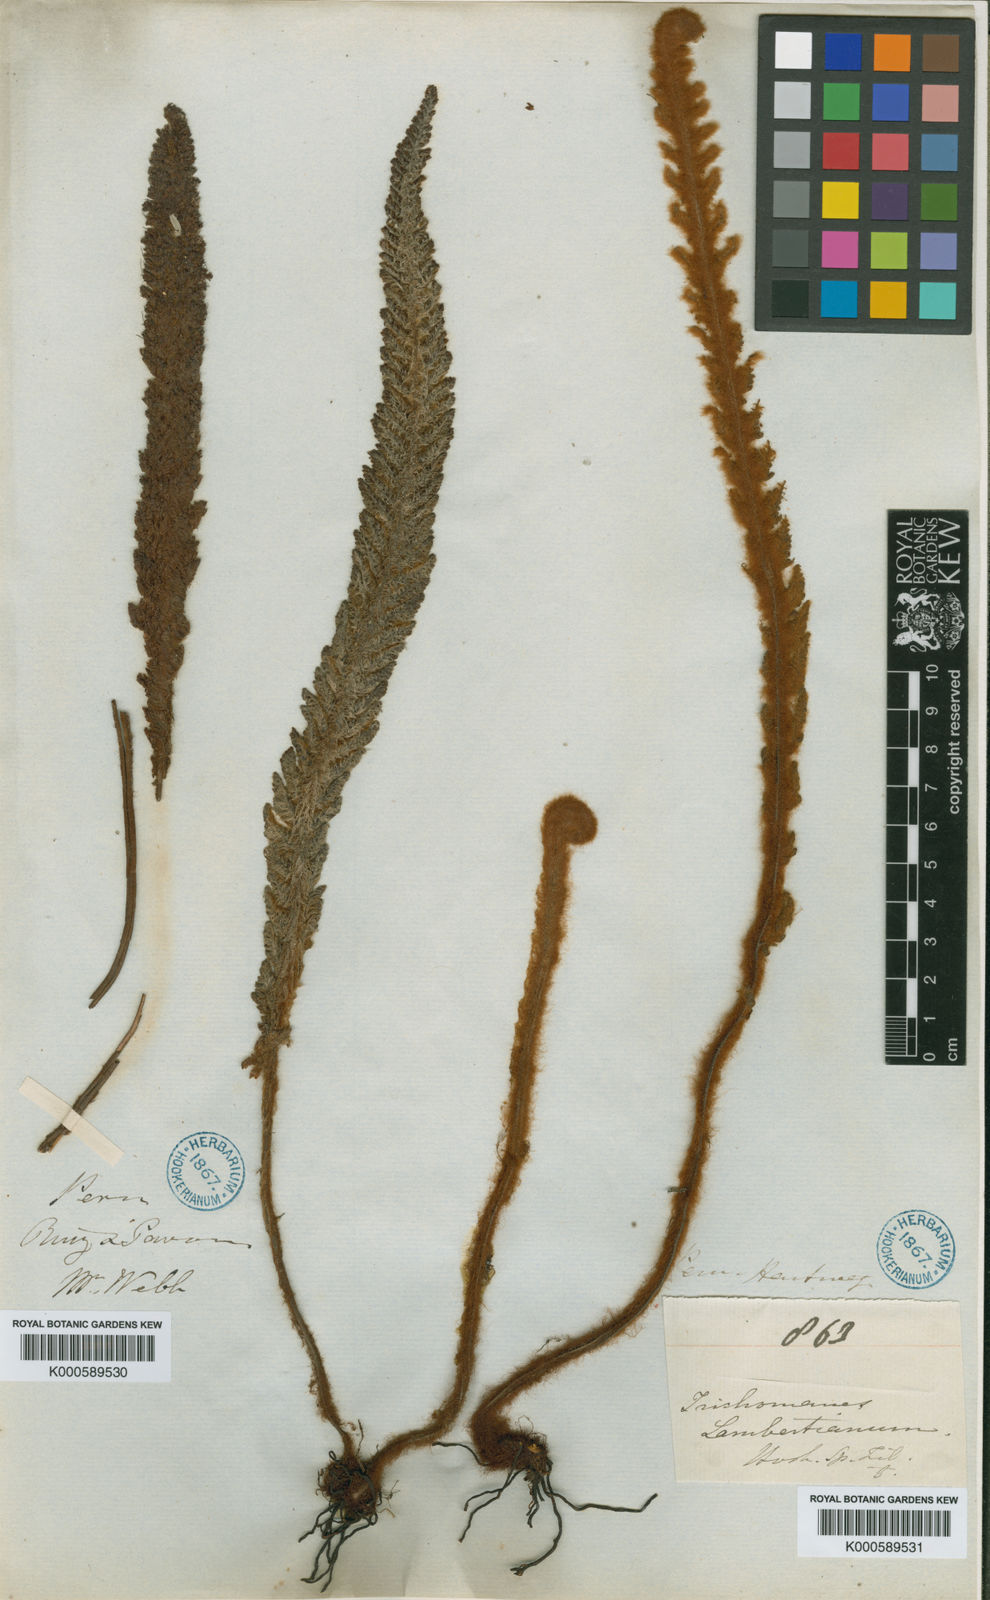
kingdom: Plantae
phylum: Tracheophyta
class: Polypodiopsida
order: Hymenophyllales
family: Hymenophyllaceae
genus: Trichomanes
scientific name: Trichomanes lucens
